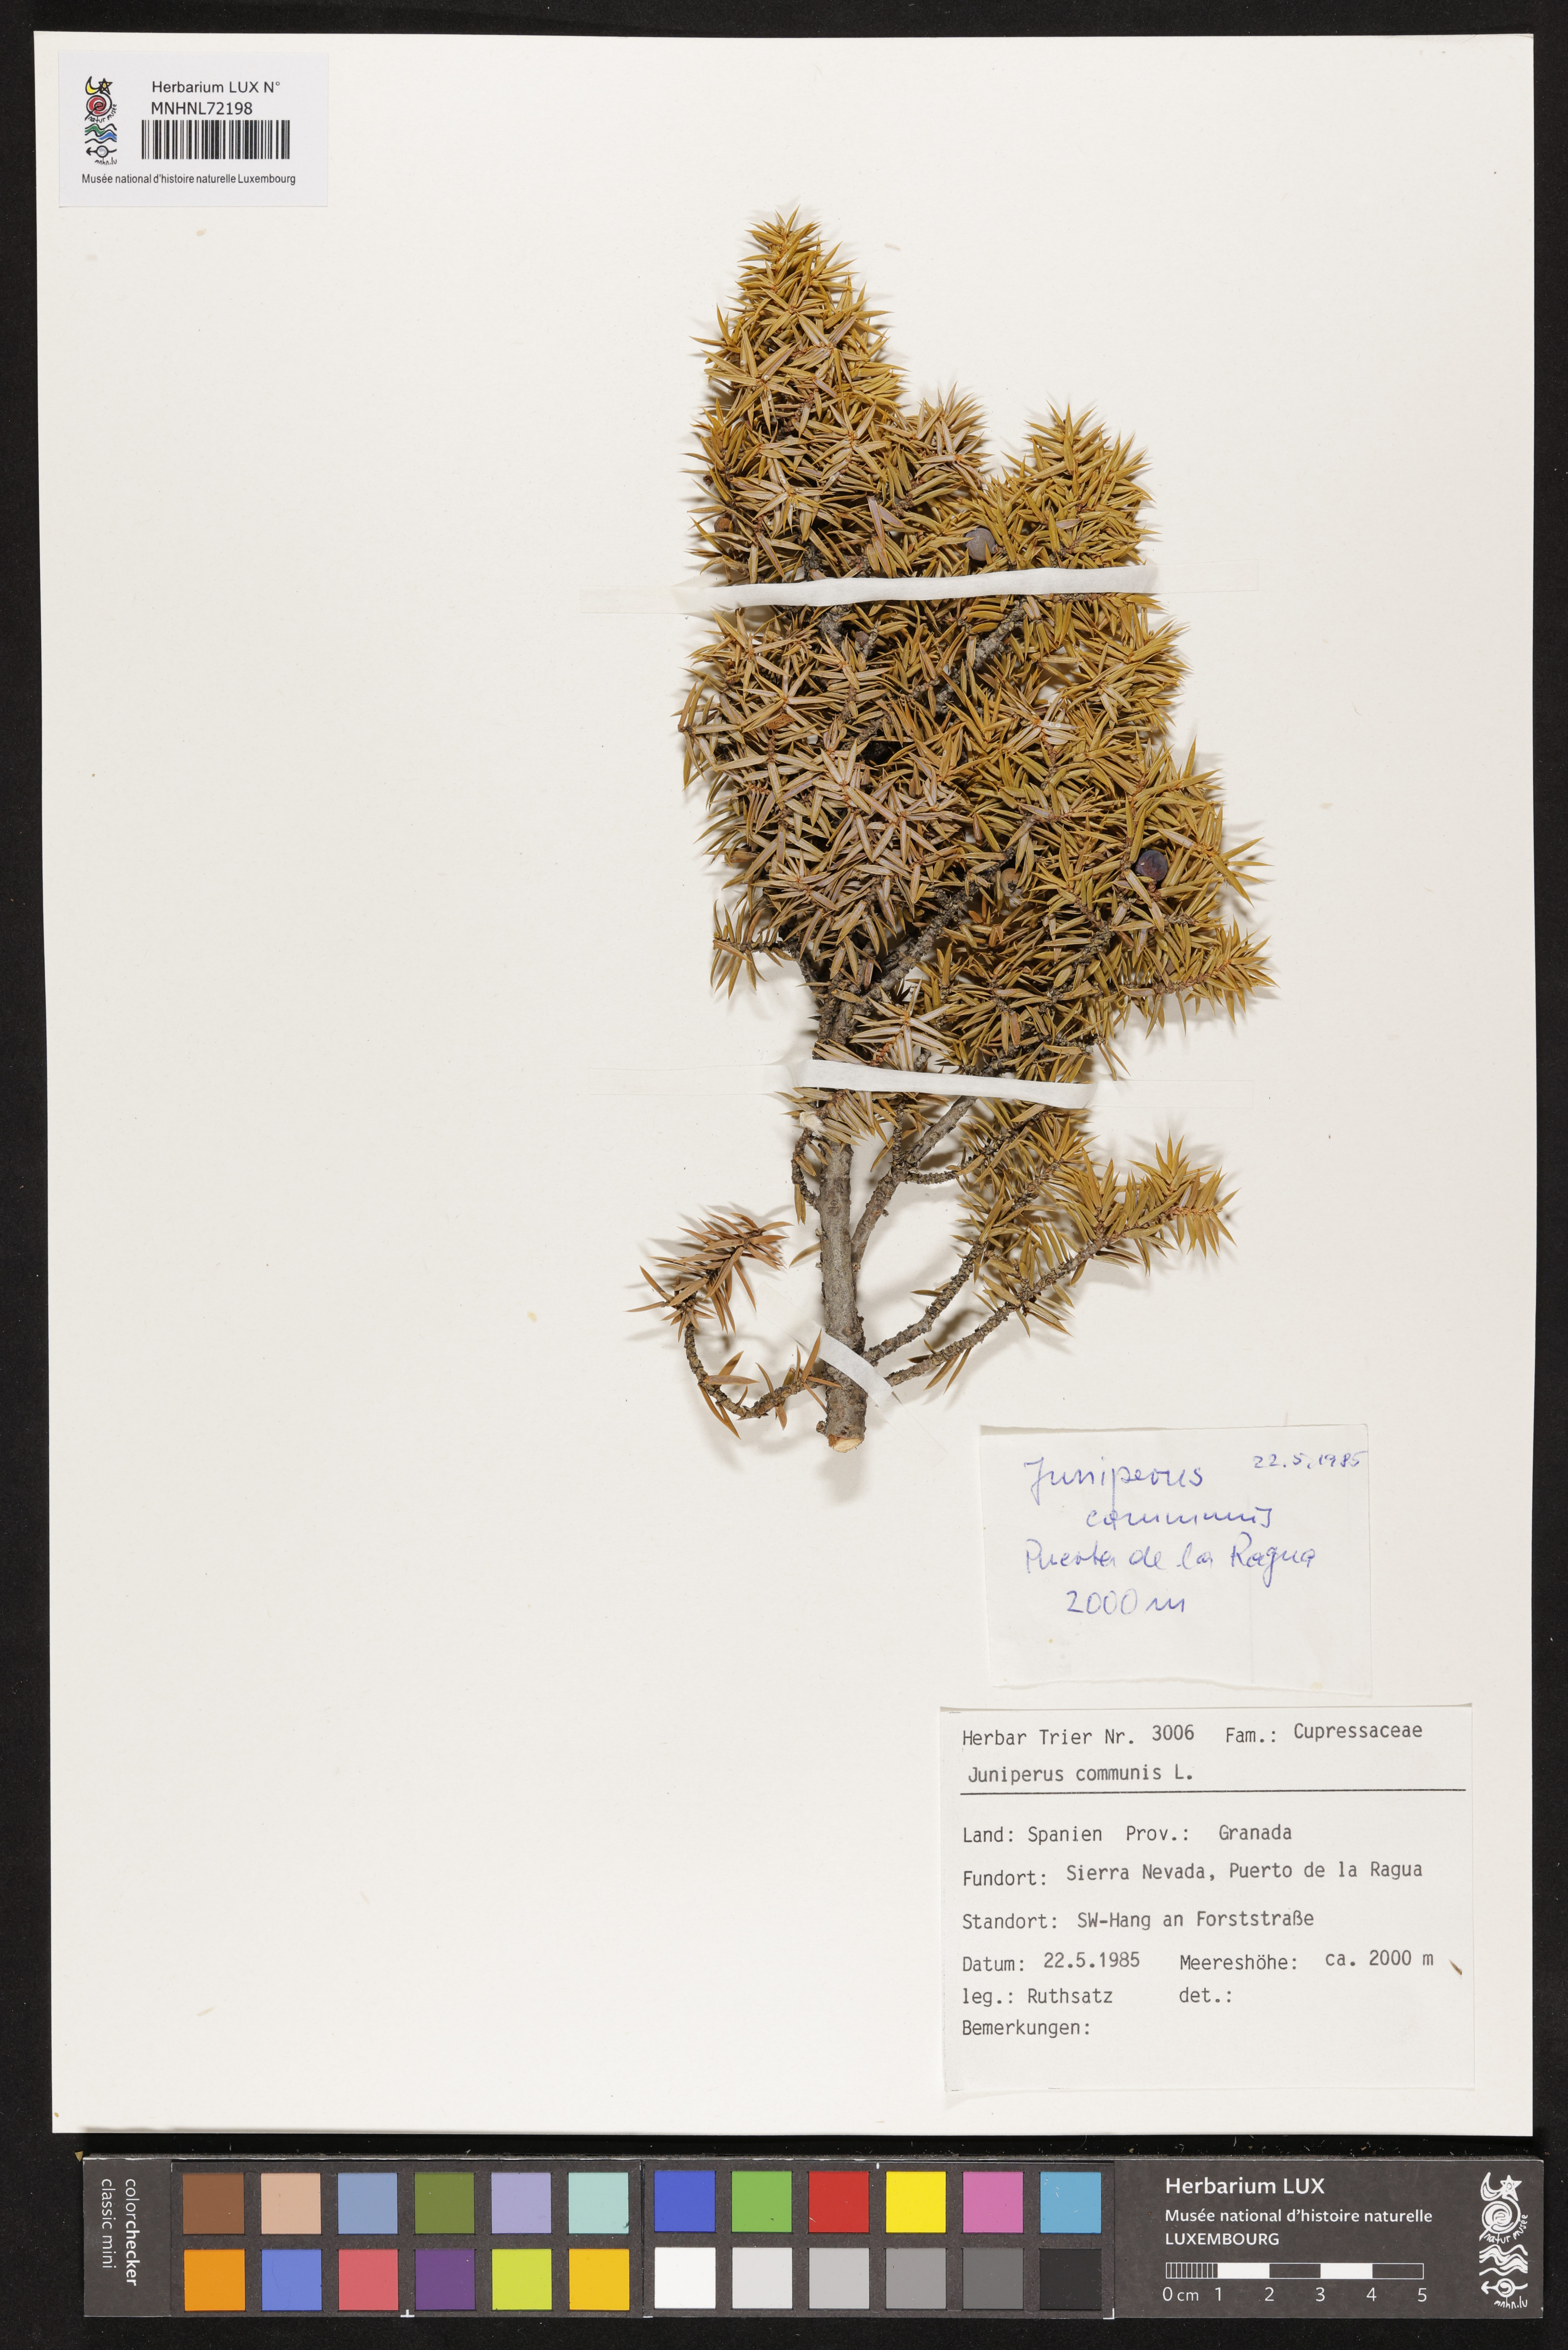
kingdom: Plantae
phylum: Tracheophyta
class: Pinopsida
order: Pinales
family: Cupressaceae
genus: Juniperus
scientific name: Juniperus communis
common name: Common juniper
